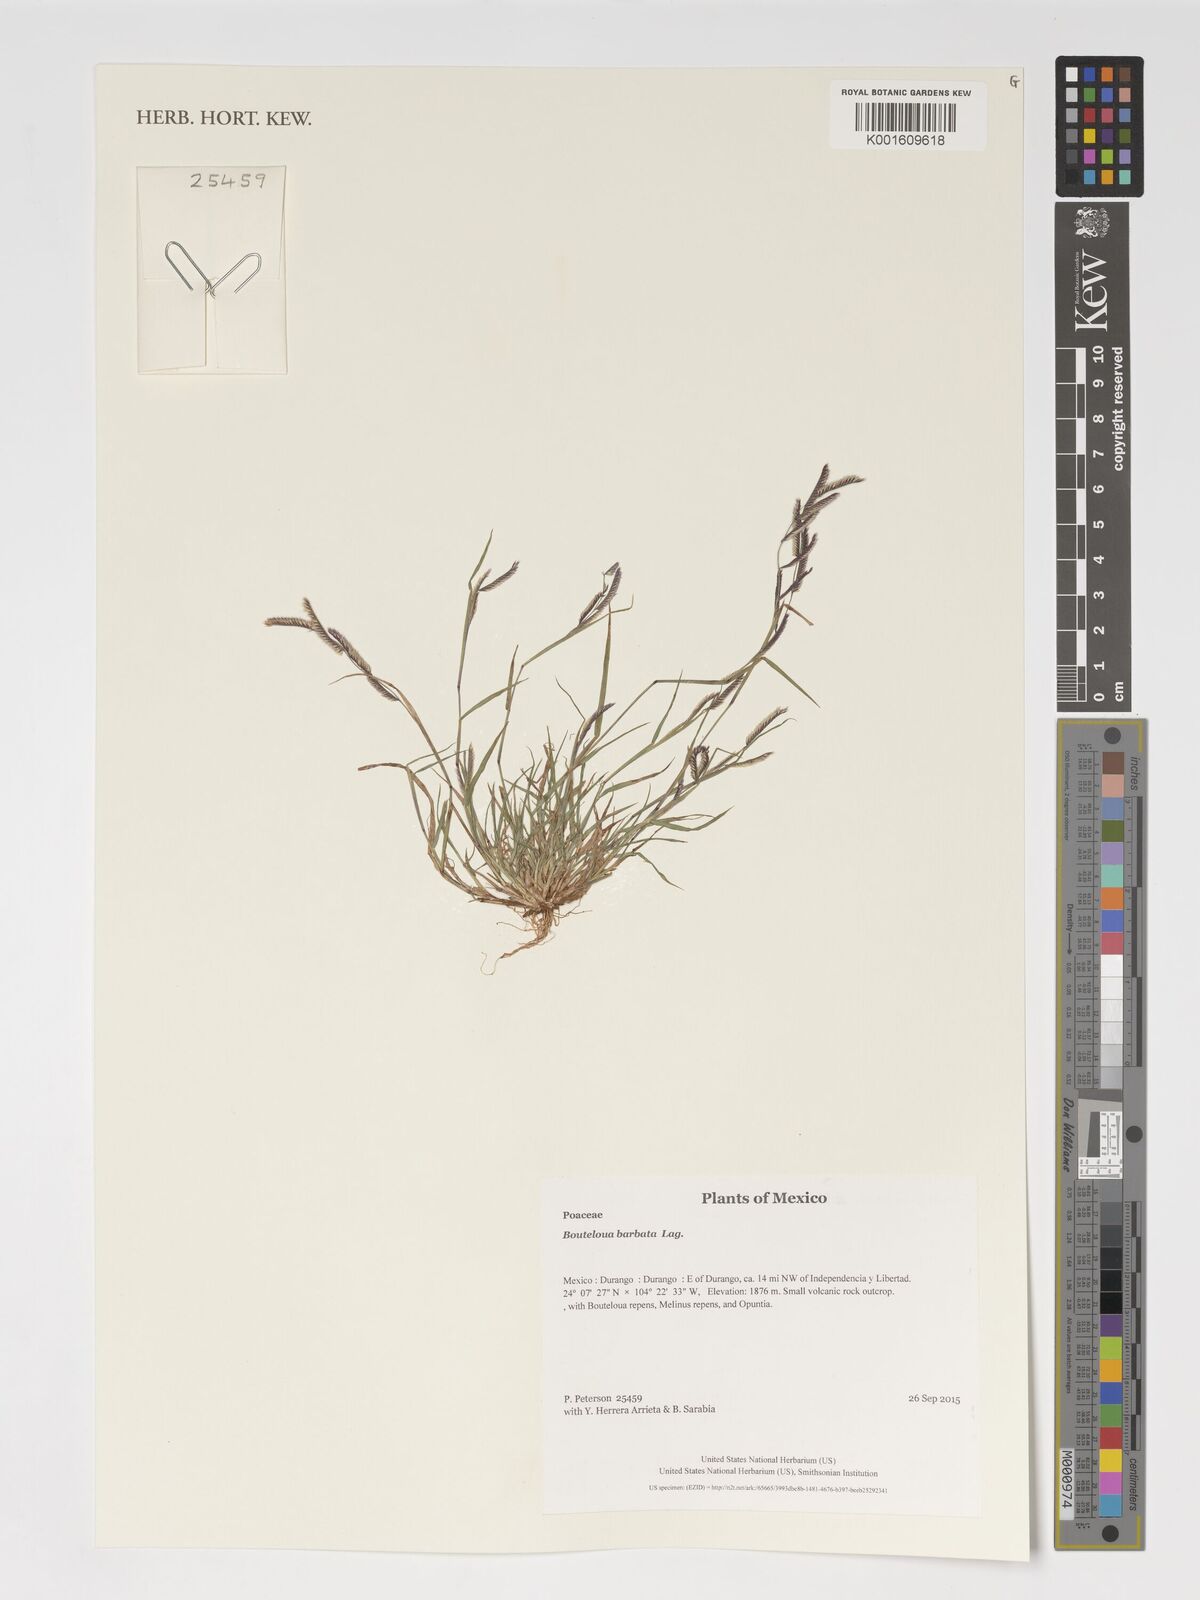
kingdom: Plantae
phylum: Tracheophyta
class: Liliopsida
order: Poales
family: Poaceae
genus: Bouteloua
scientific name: Bouteloua barbata
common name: Six-weeks grama
